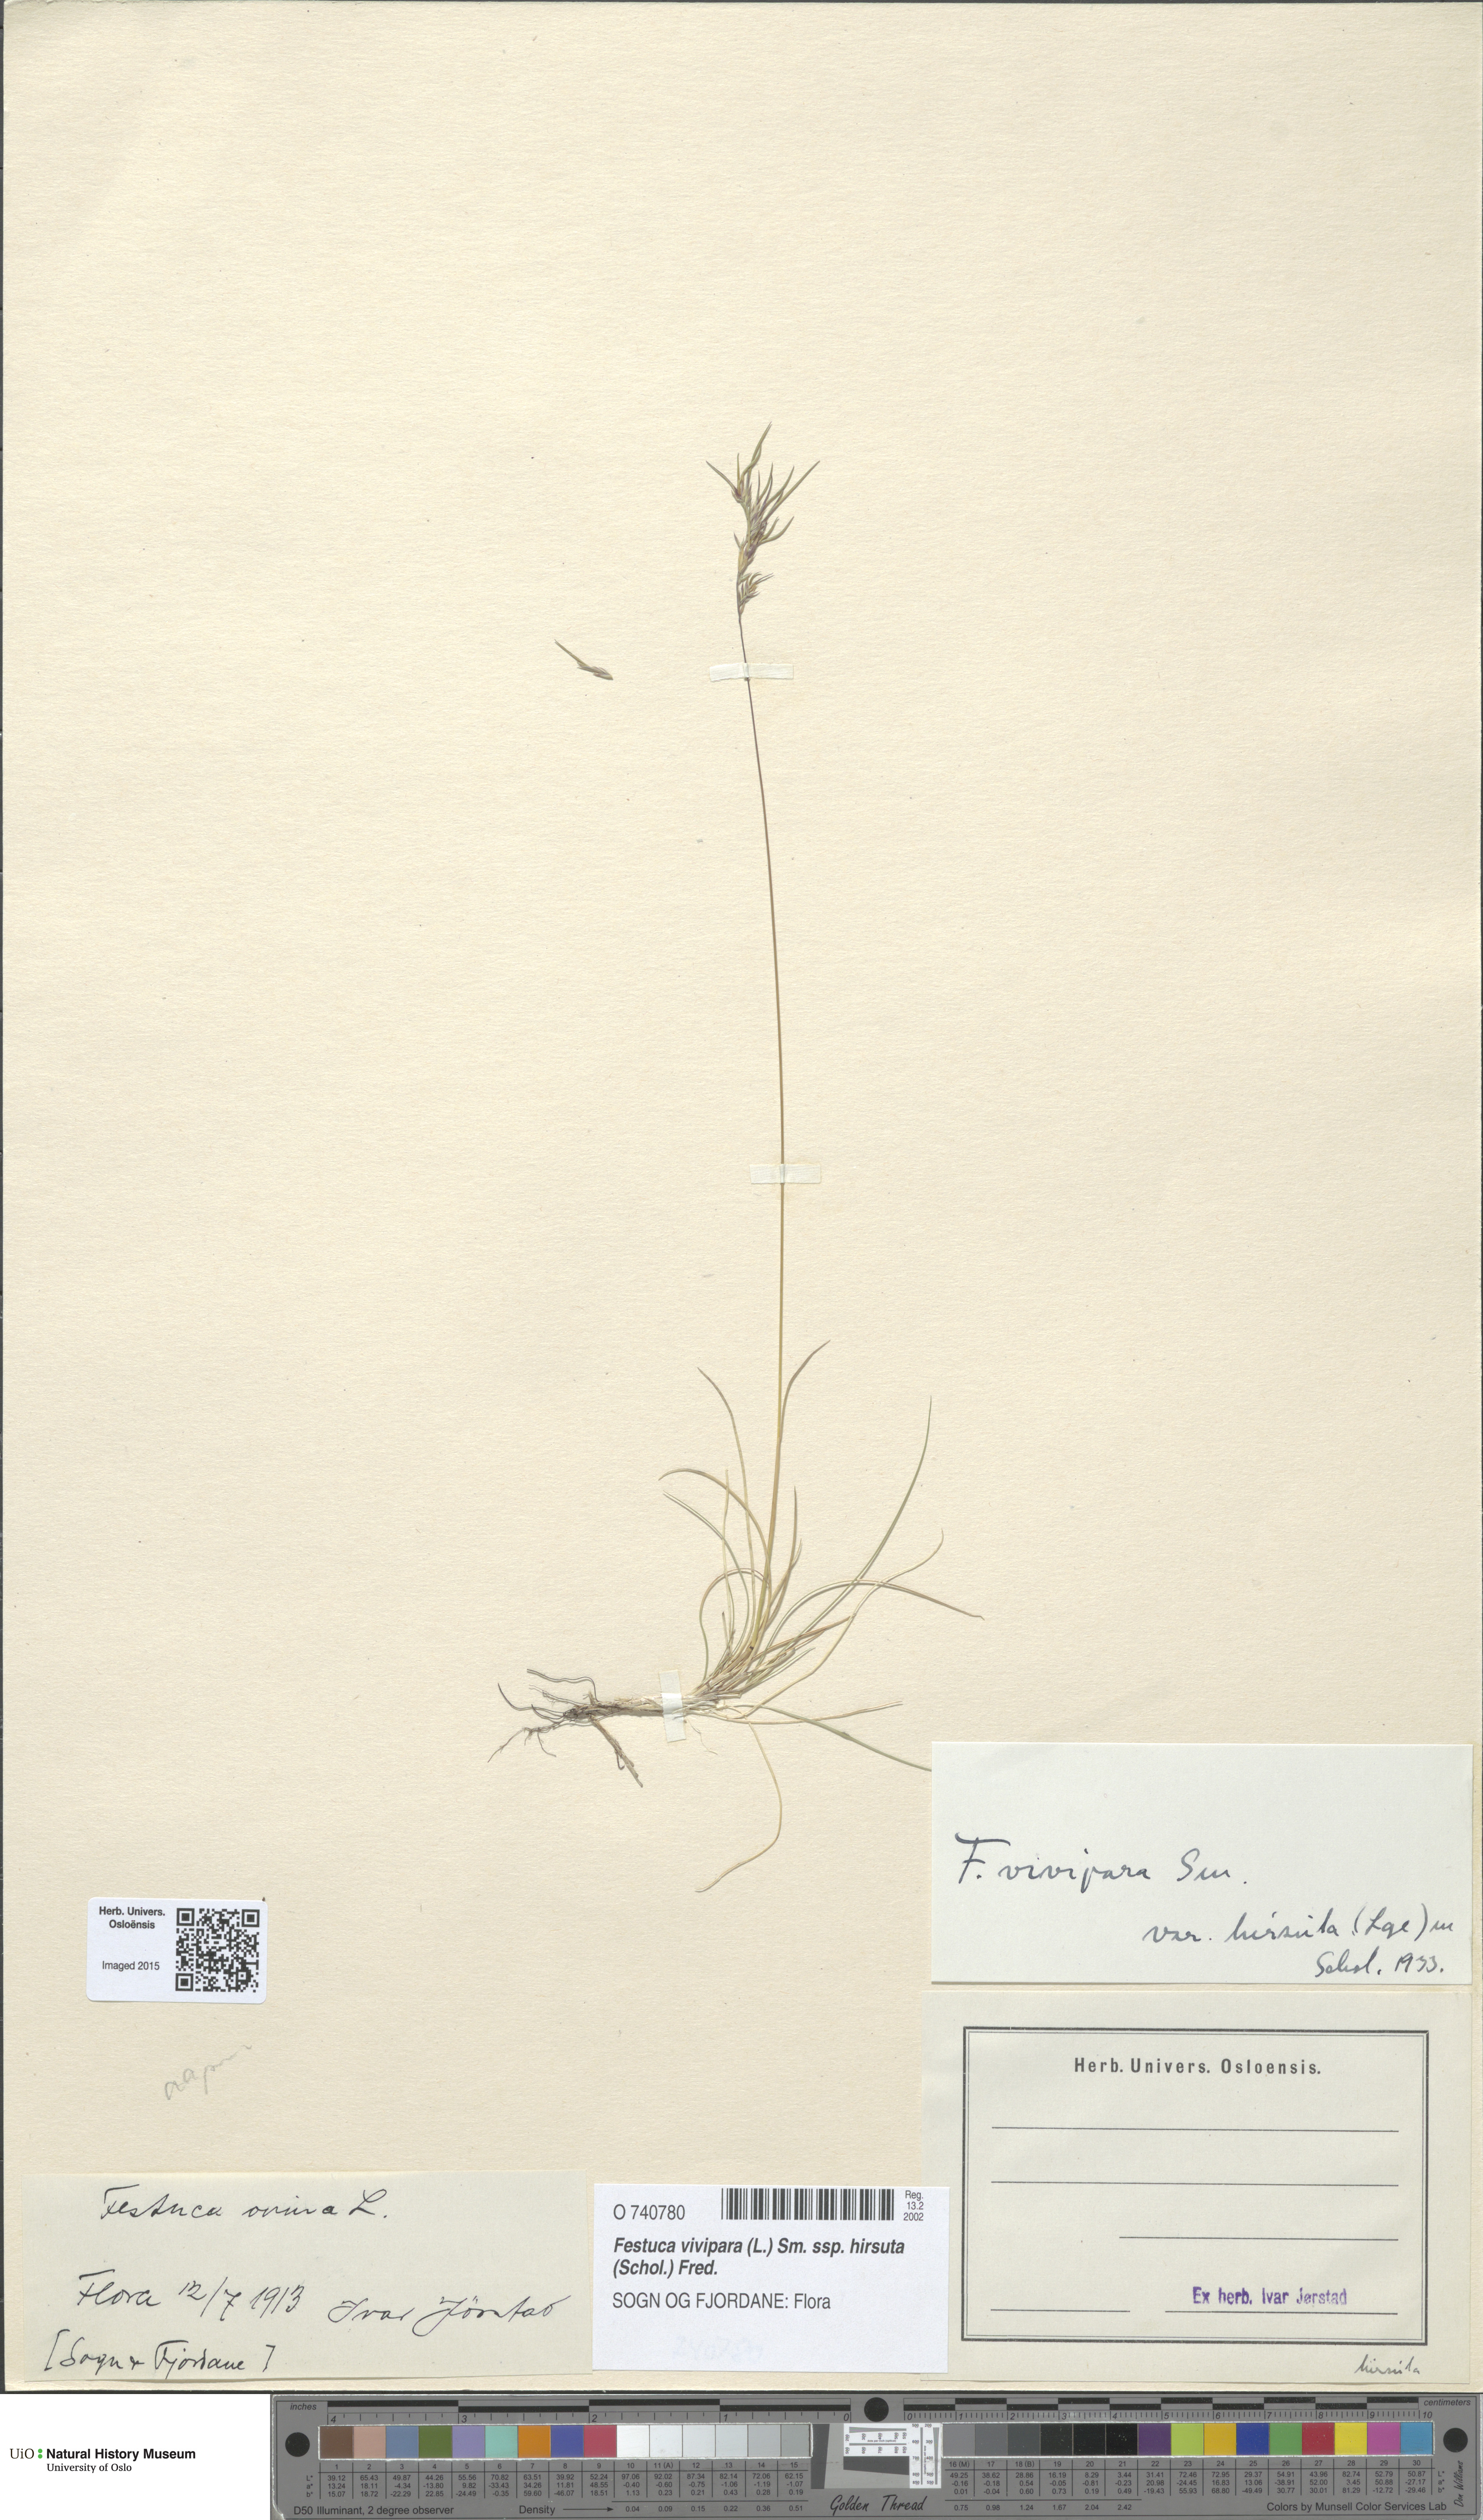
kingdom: Plantae
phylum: Tracheophyta
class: Liliopsida
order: Poales
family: Poaceae
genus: Festuca
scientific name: Festuca vivipara
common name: Viviparous sheep's-fescue
